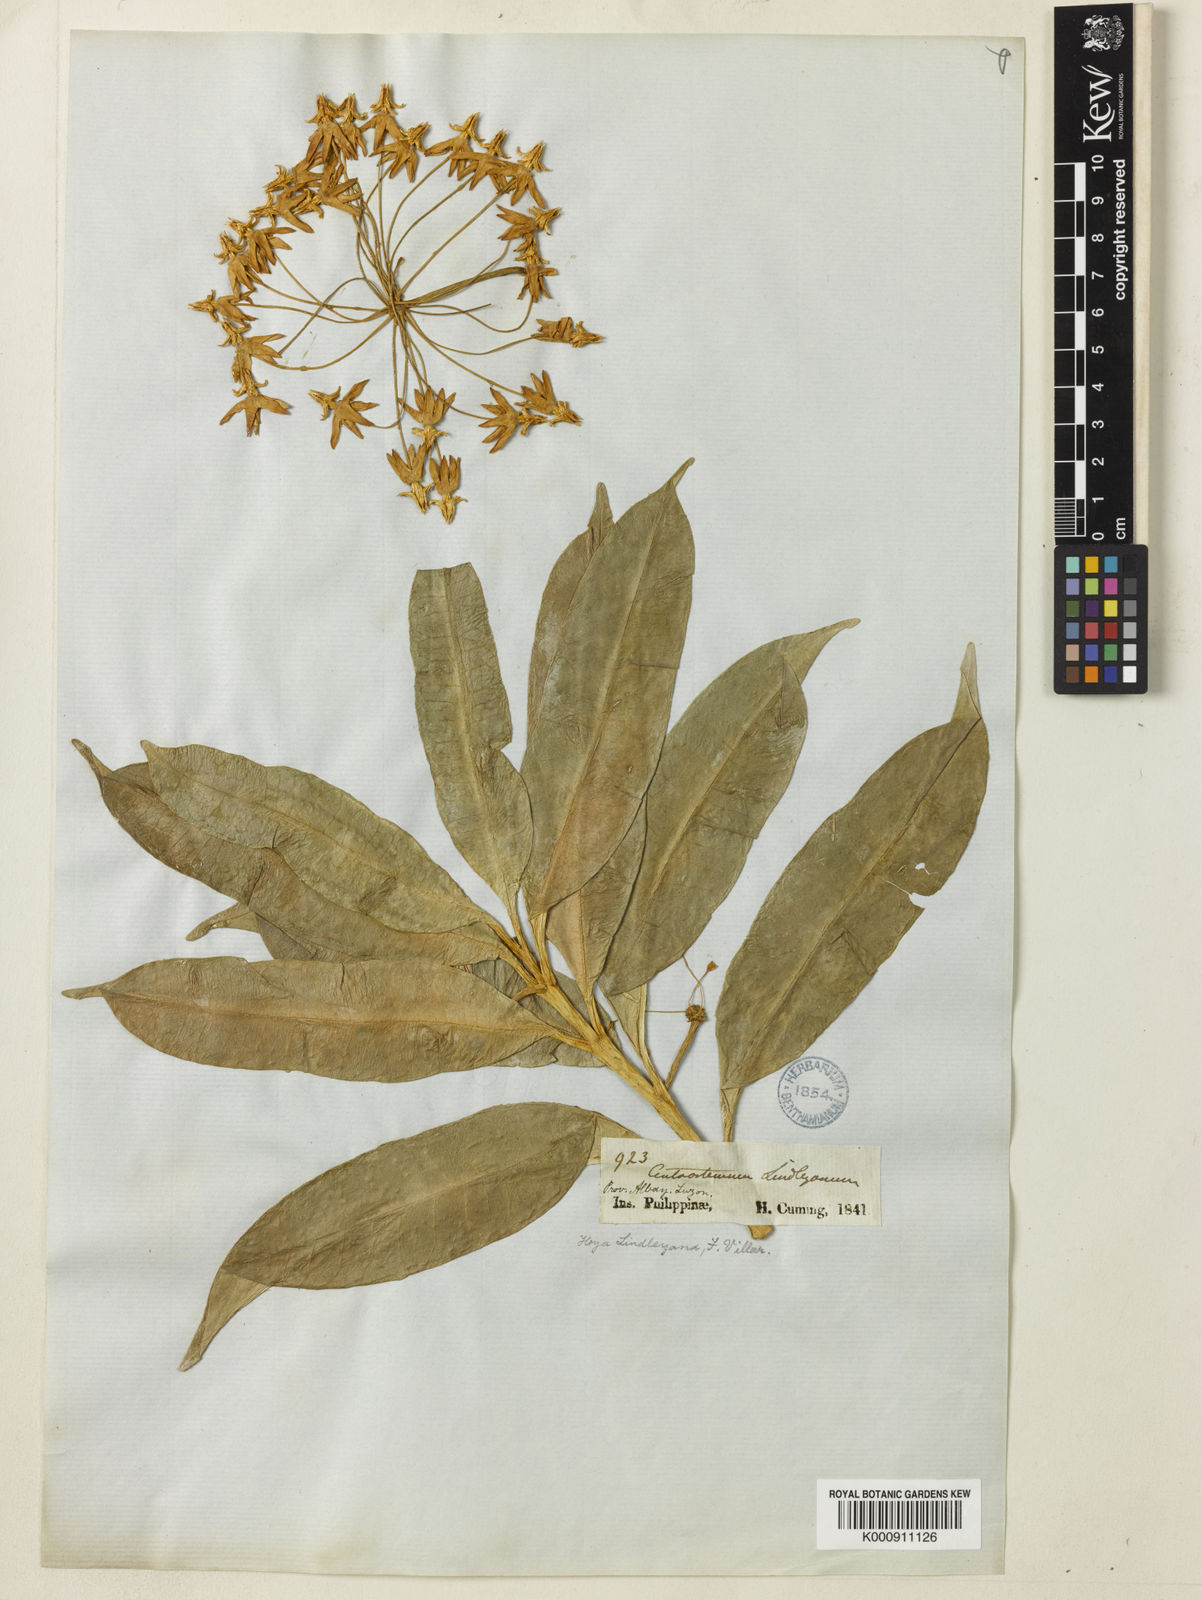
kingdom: Plantae
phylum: Tracheophyta
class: Magnoliopsida
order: Gentianales
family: Apocynaceae
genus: Hoya
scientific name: Hoya multiflora
